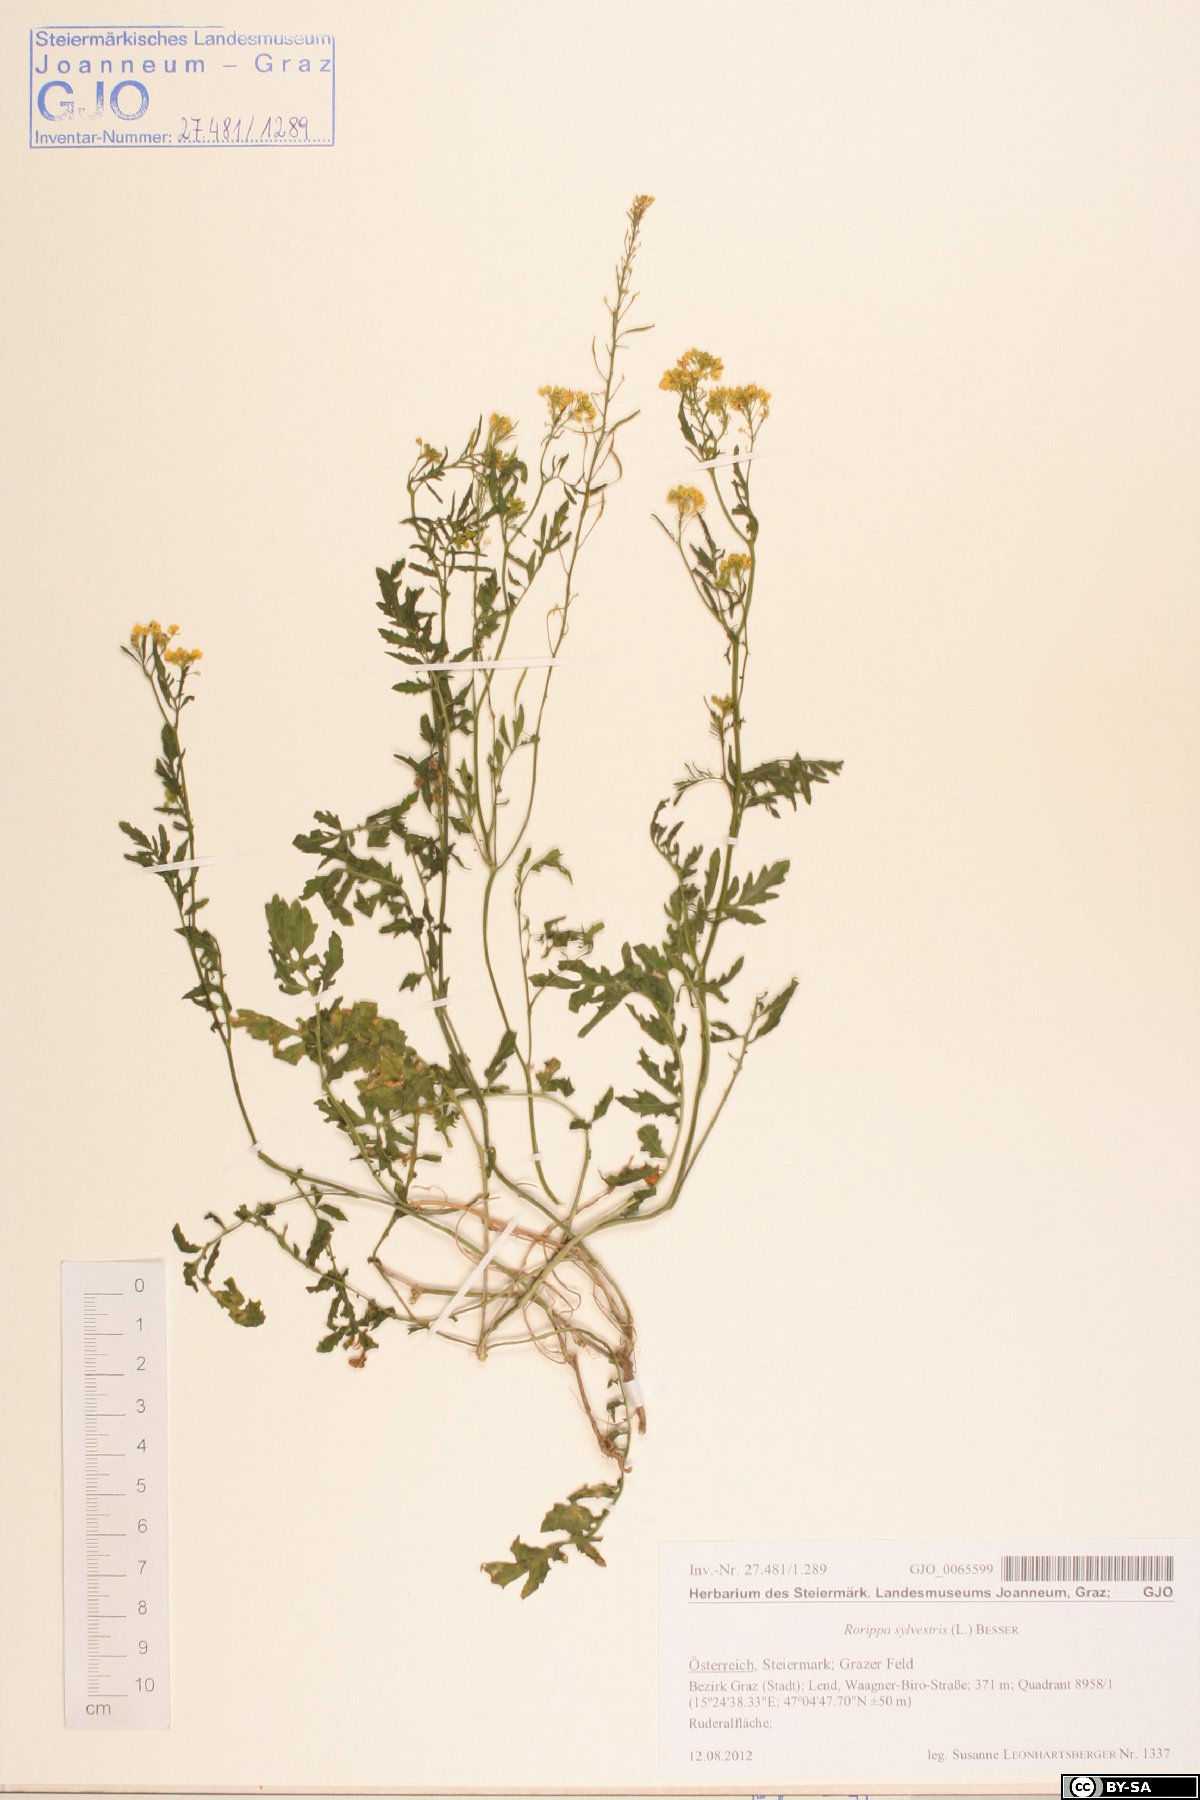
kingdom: Plantae
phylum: Tracheophyta
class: Magnoliopsida
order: Brassicales
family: Brassicaceae
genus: Rorippa
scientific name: Rorippa sylvestris
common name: Creeping yellowcress
